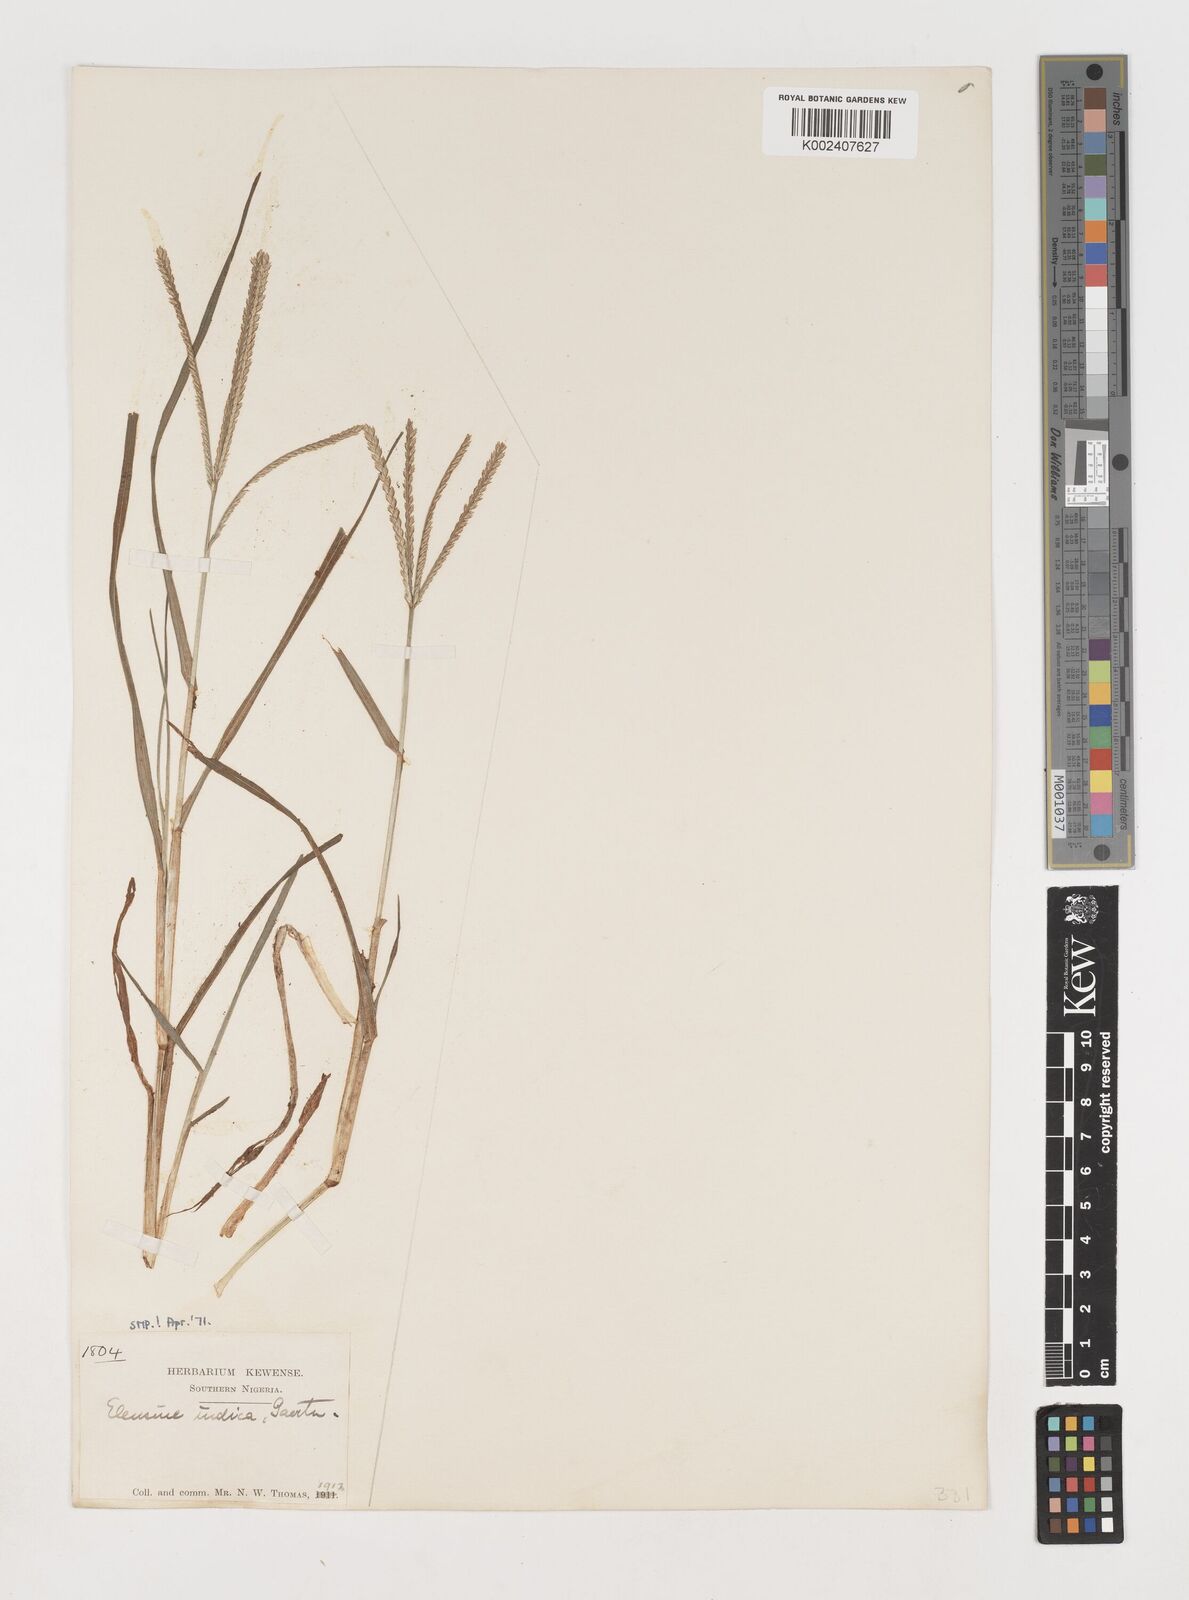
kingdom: Plantae
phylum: Tracheophyta
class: Liliopsida
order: Poales
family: Poaceae
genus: Eleusine
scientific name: Eleusine indica
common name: Yard-grass
